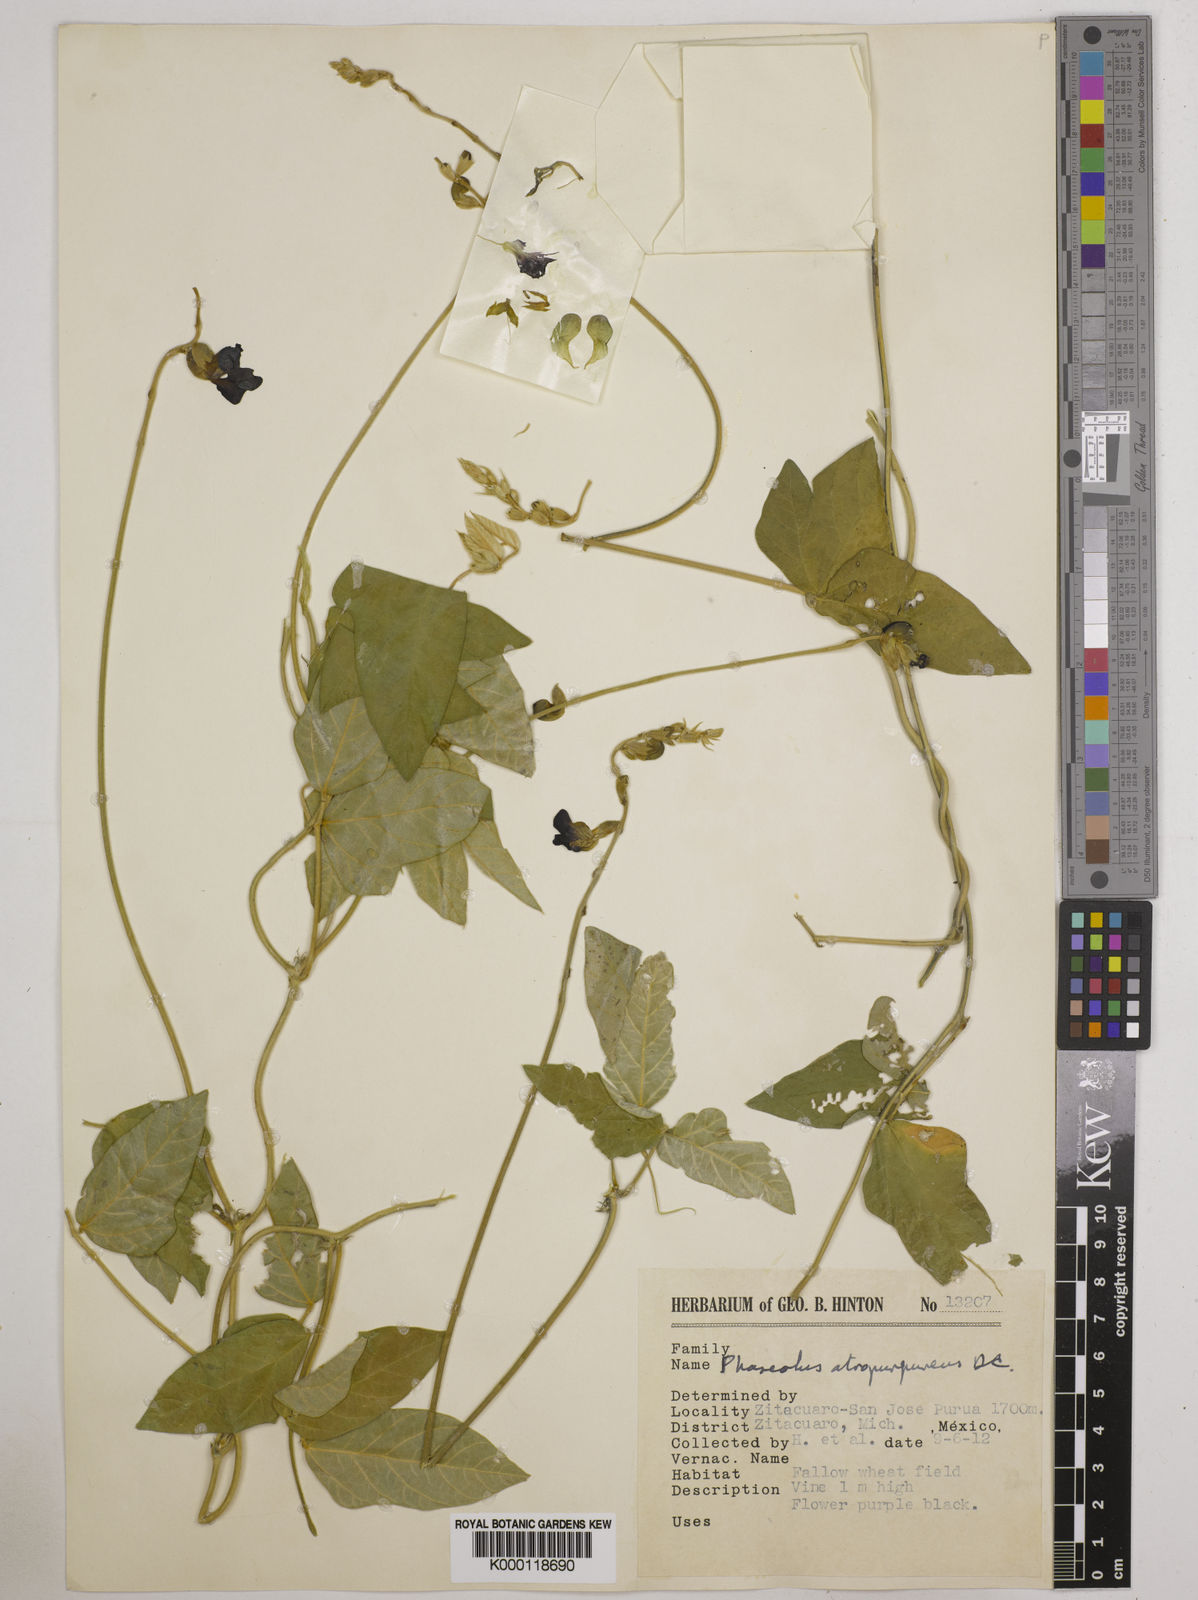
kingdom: Plantae
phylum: Tracheophyta
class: Magnoliopsida
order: Fabales
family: Fabaceae
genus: Macroptilium
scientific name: Macroptilium atropurpureum
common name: Purple bushbean
